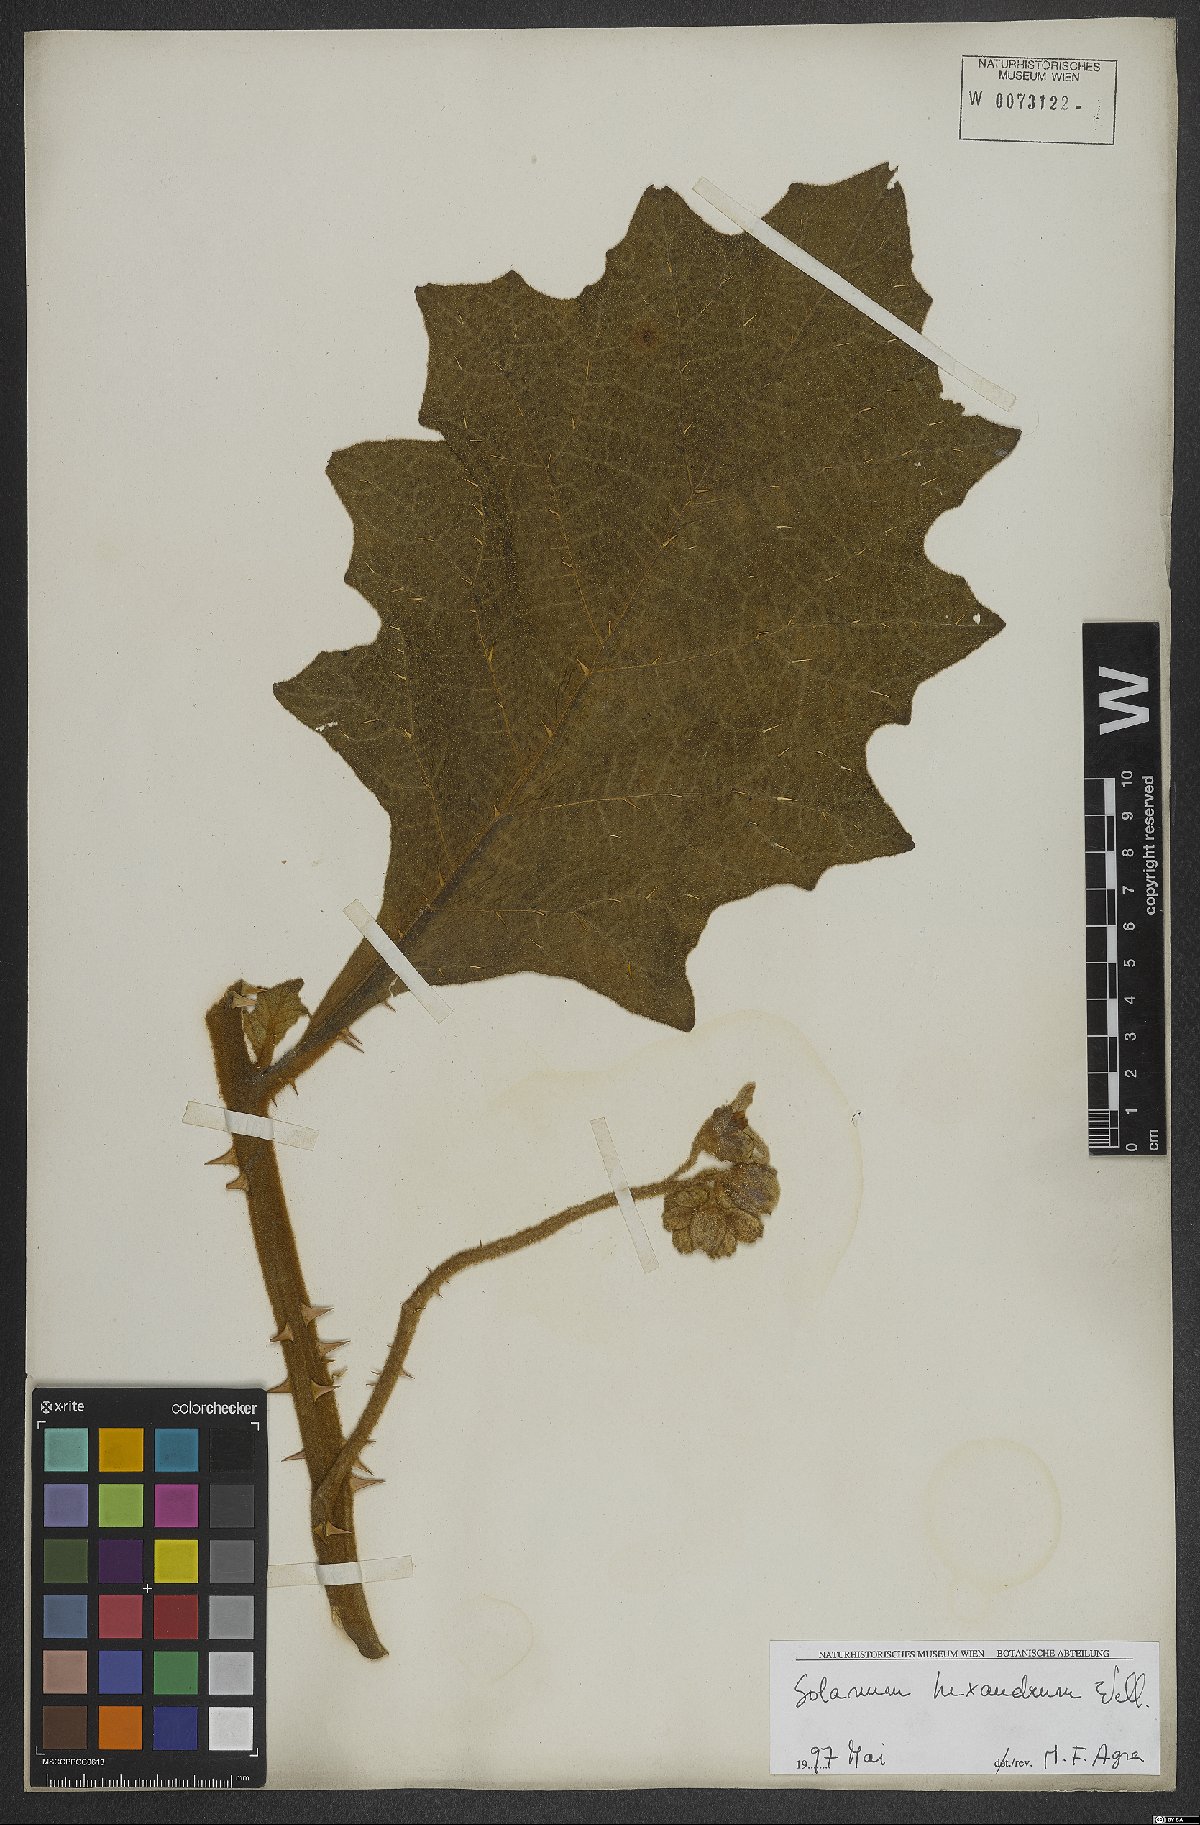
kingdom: Plantae
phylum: Tracheophyta
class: Magnoliopsida
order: Solanales
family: Solanaceae
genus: Solanum
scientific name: Solanum hexandrum
